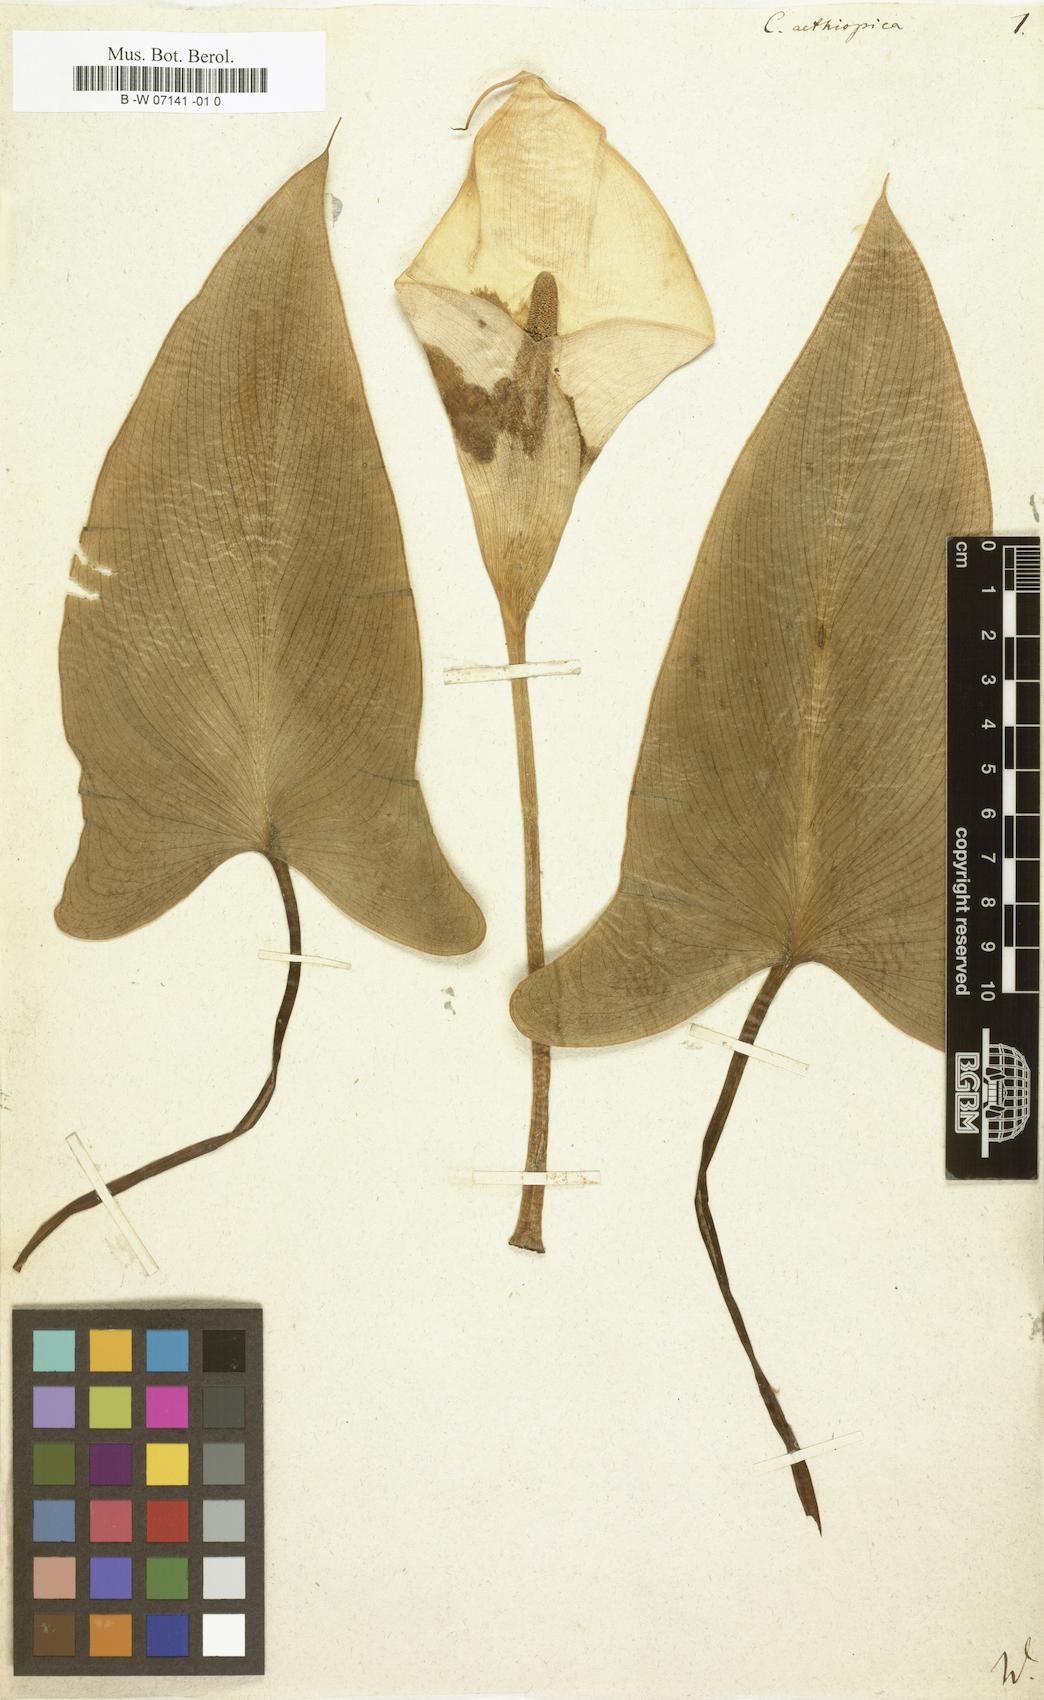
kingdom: Plantae
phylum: Tracheophyta
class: Liliopsida
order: Alismatales
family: Araceae
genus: Calla
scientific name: Calla aethiopica
